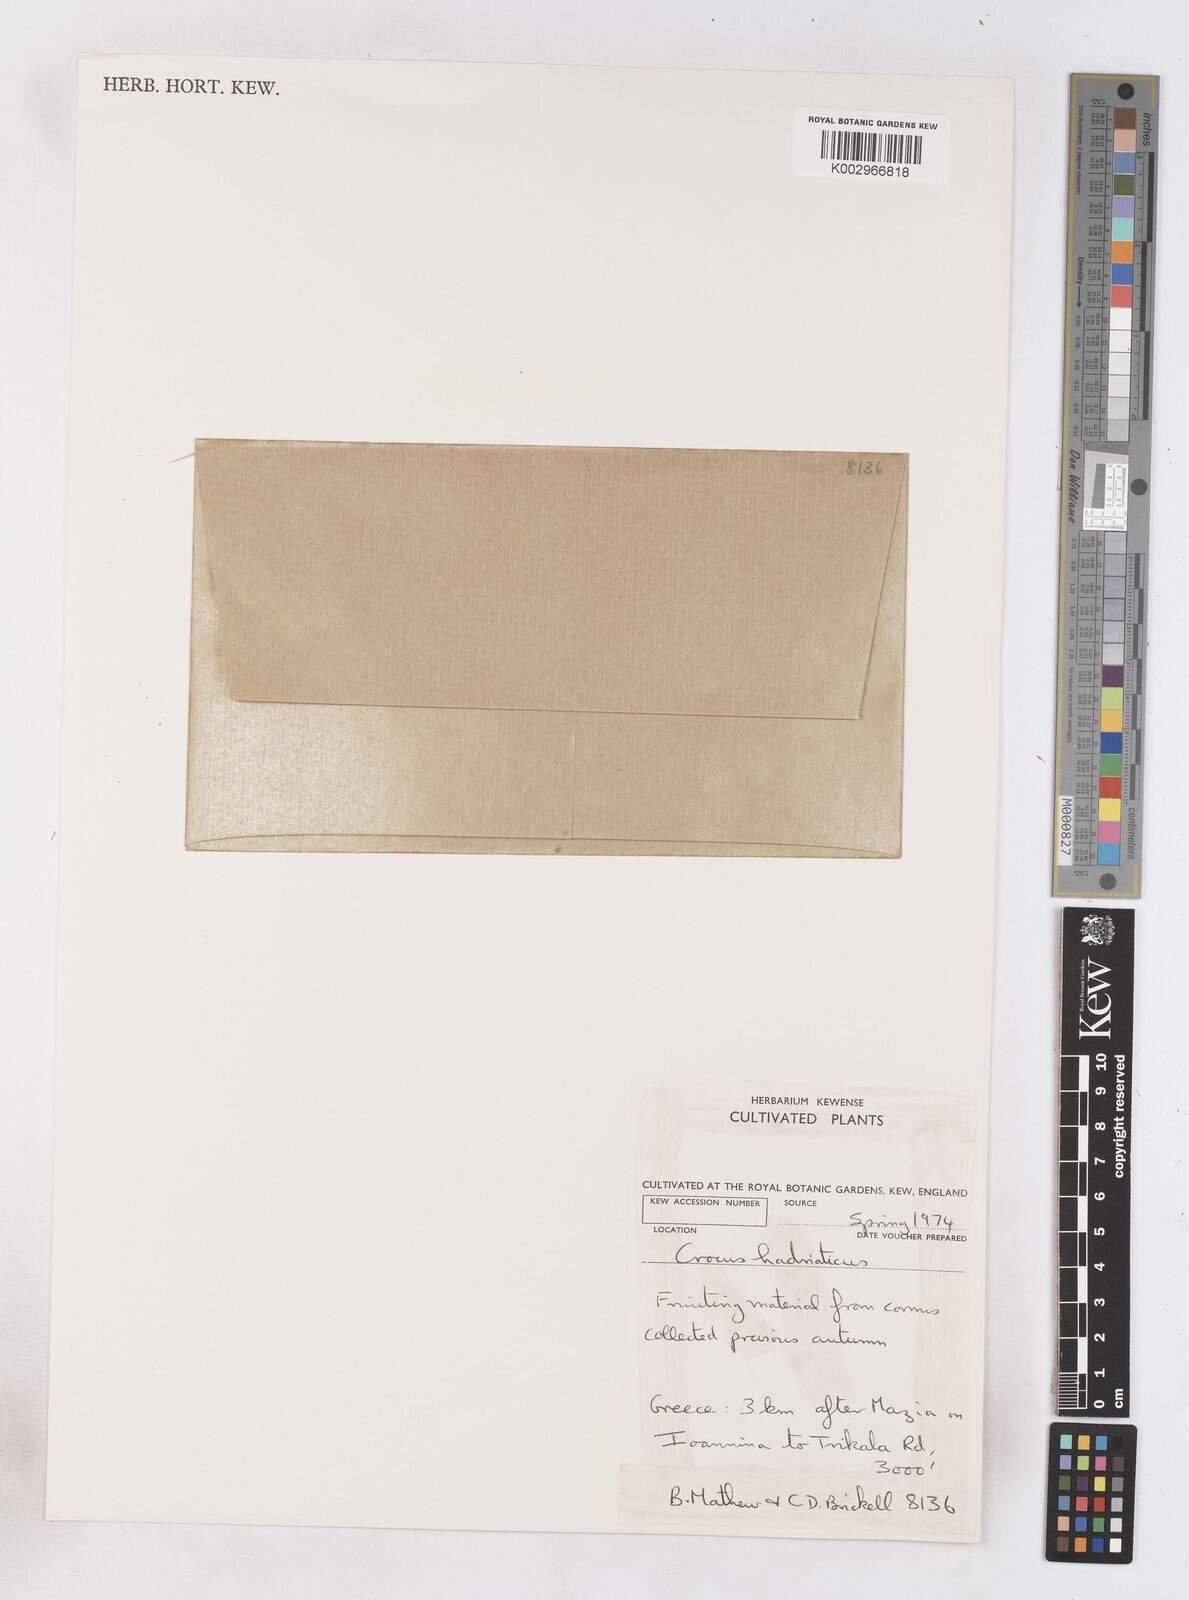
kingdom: Plantae
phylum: Tracheophyta
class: Liliopsida
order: Asparagales
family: Iridaceae
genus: Crocus
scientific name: Crocus hadriaticus
